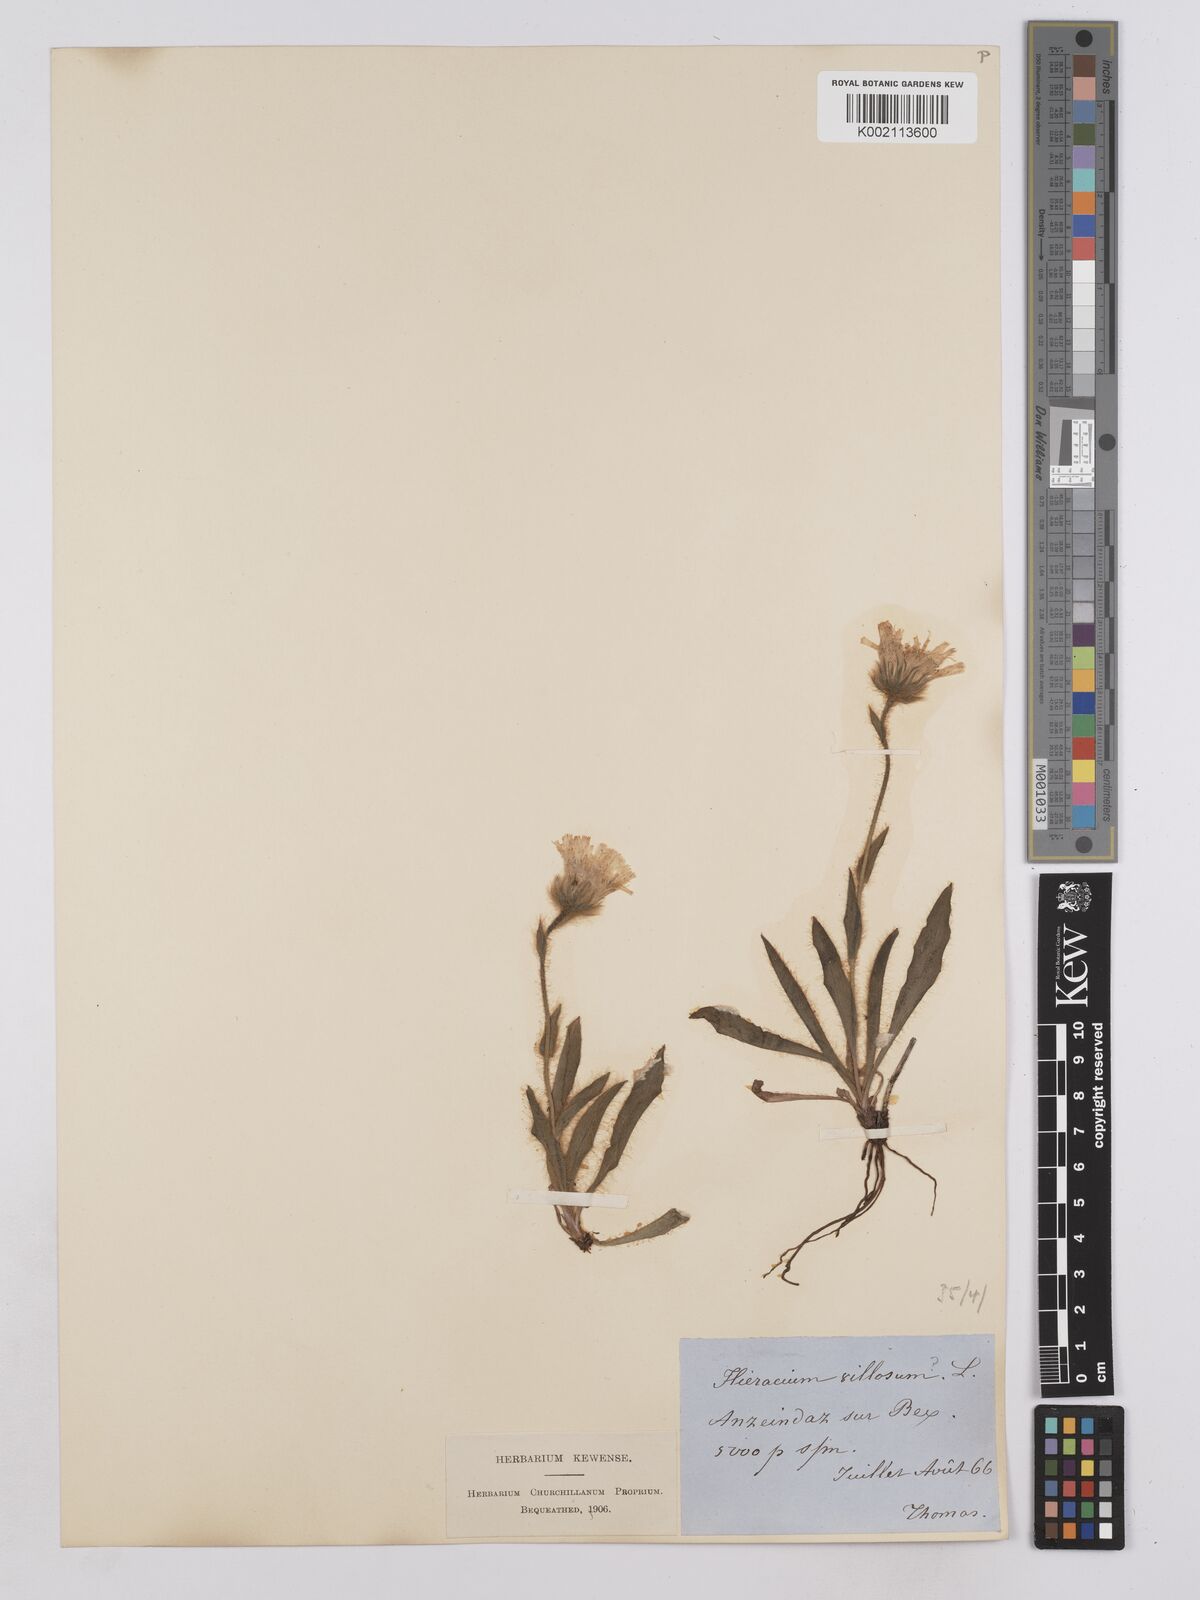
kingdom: Plantae
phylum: Tracheophyta
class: Magnoliopsida
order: Asterales
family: Asteraceae
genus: Hieracium
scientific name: Hieracium villosum
